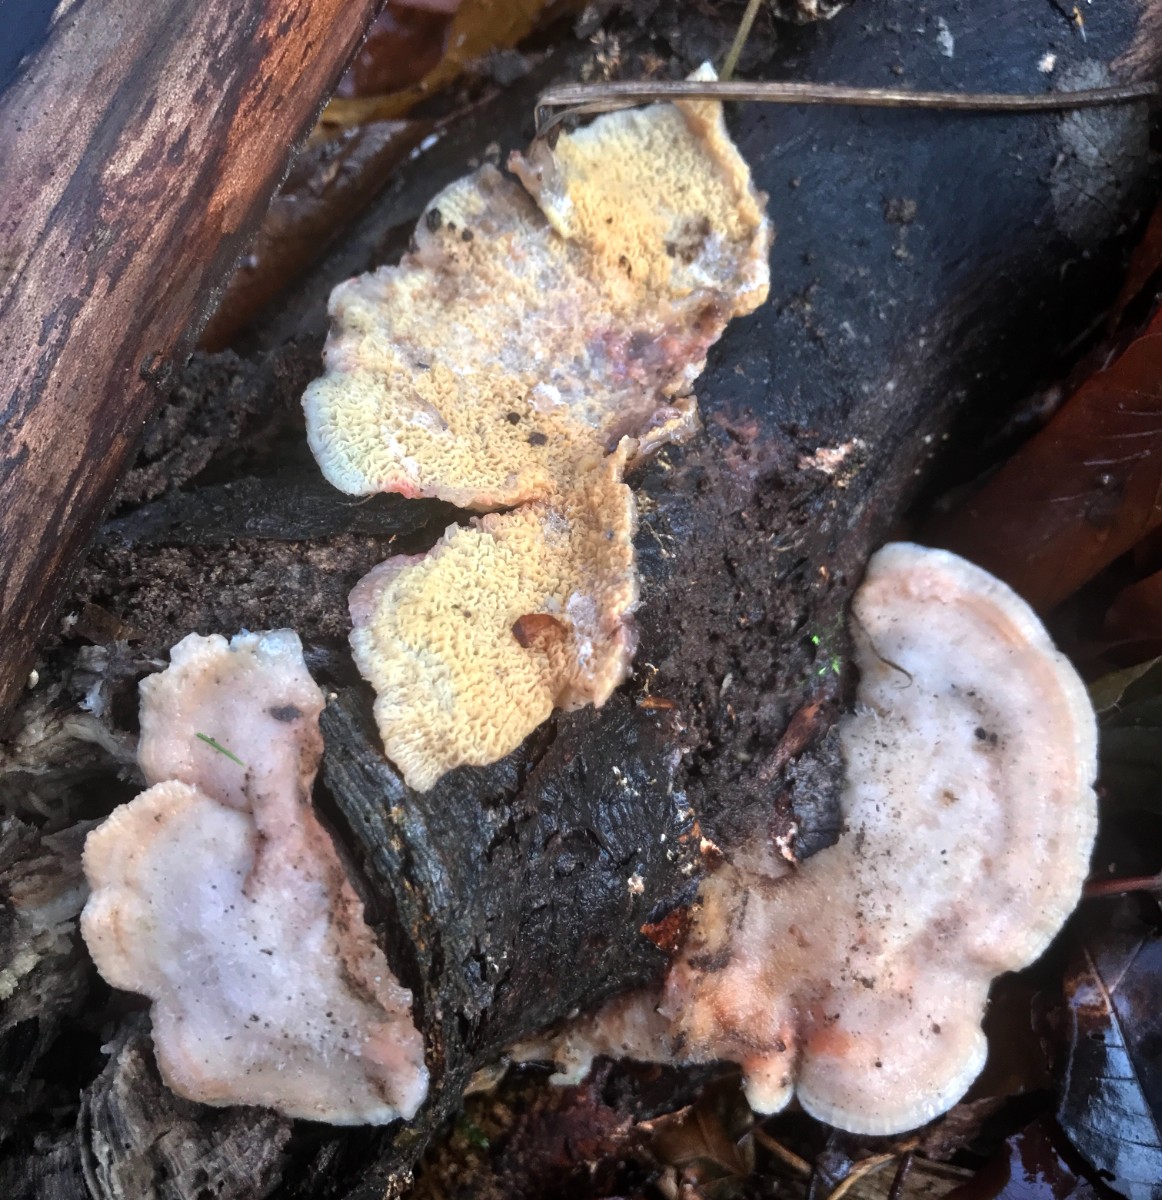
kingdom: Fungi
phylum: Basidiomycota
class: Agaricomycetes
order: Polyporales
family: Meruliaceae
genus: Phlebia
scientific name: Phlebia tremellosa
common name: bævrende åresvamp
